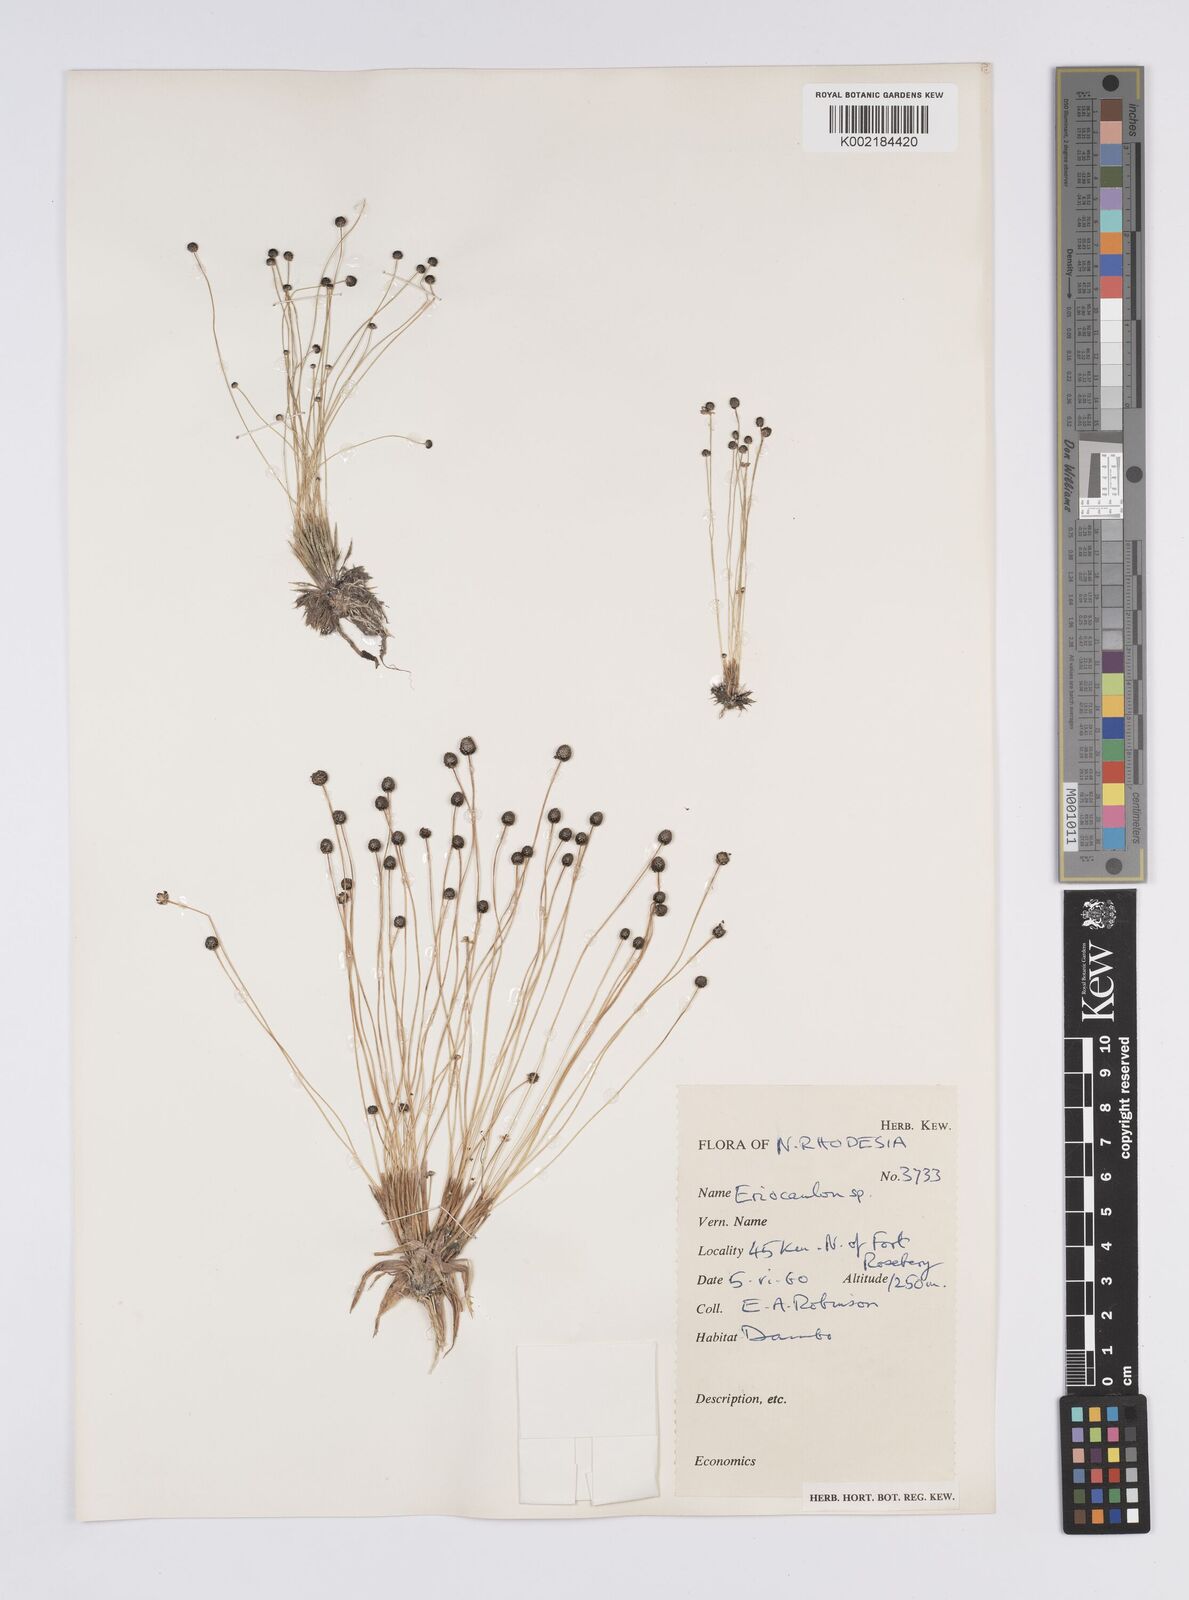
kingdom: Plantae
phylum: Tracheophyta
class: Liliopsida
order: Poales
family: Eriocaulaceae
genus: Eriocaulon
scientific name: Eriocaulon
